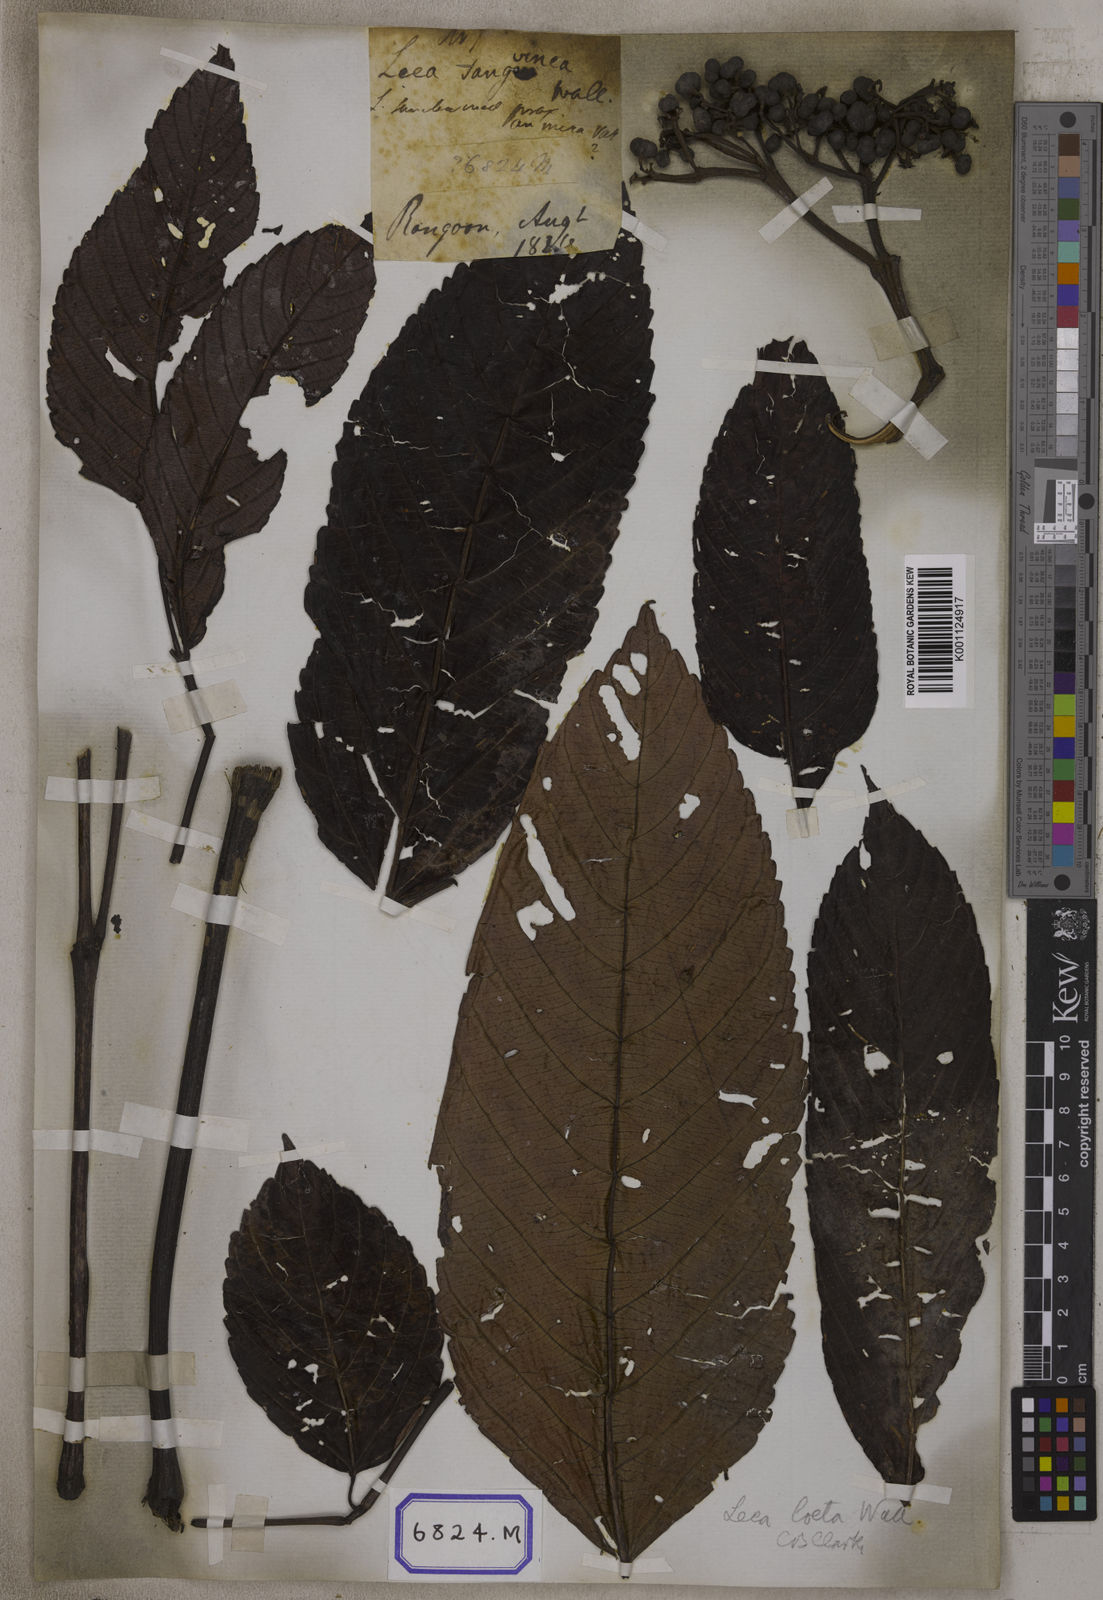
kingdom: Plantae
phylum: Tracheophyta
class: Magnoliopsida
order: Vitales
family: Vitaceae
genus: Leea
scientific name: Leea
